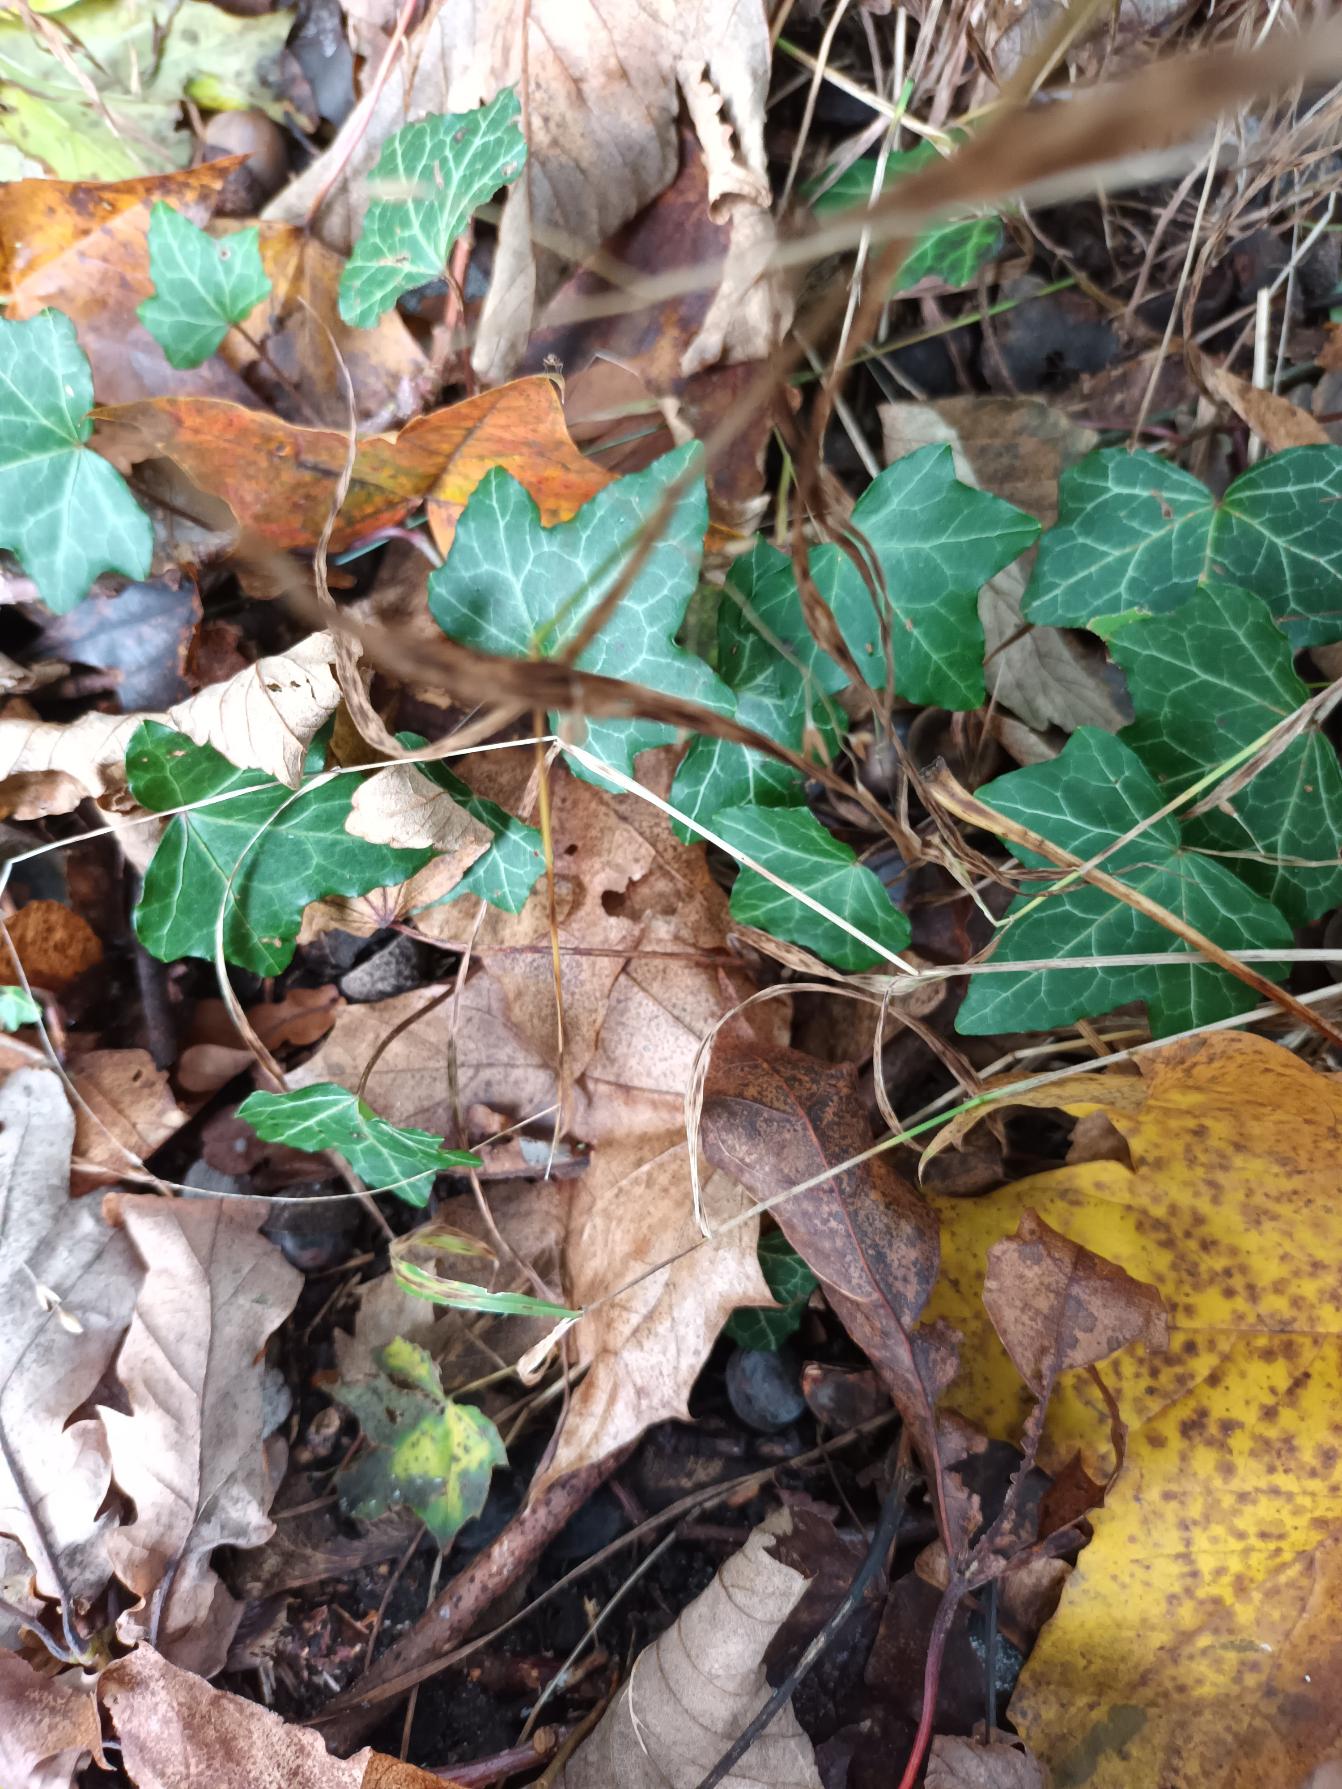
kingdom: Plantae
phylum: Tracheophyta
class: Magnoliopsida
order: Apiales
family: Araliaceae
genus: Hedera
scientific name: Hedera helix
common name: Vedbend
